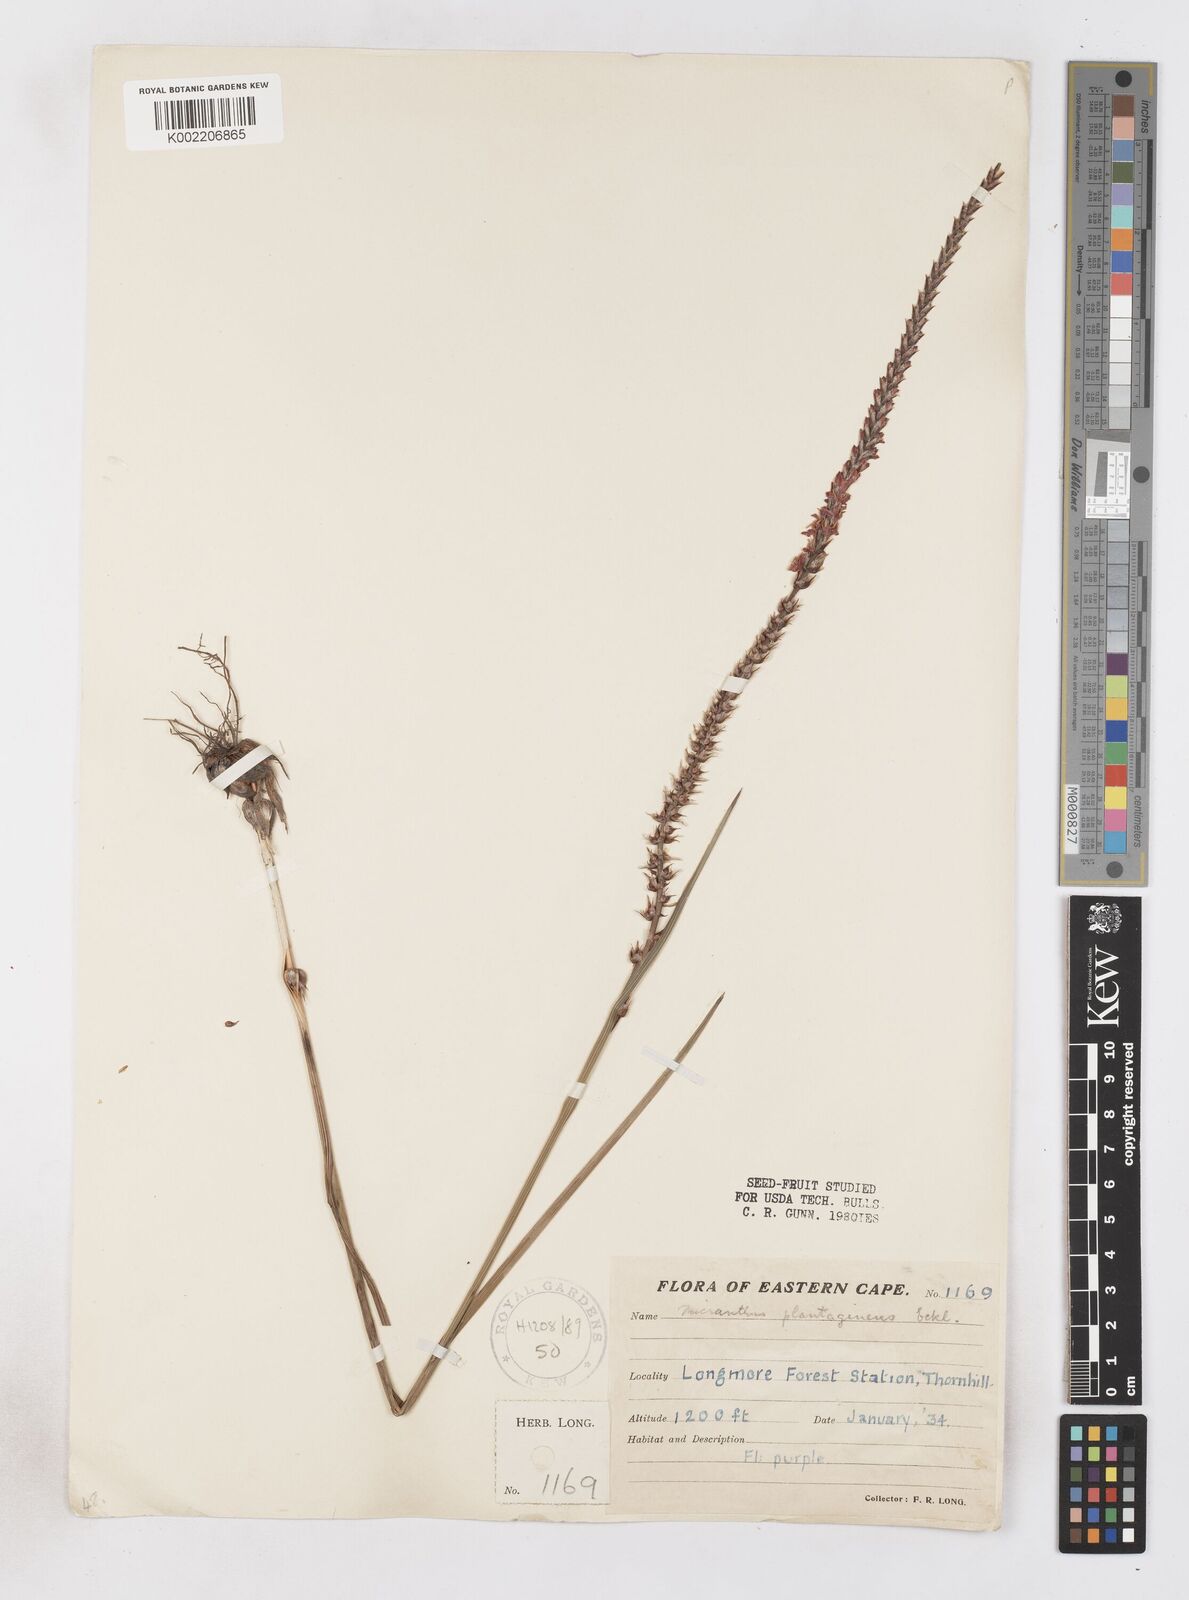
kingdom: Plantae
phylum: Tracheophyta
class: Liliopsida
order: Asparagales
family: Iridaceae
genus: Micranthus
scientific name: Micranthus plantagineus
